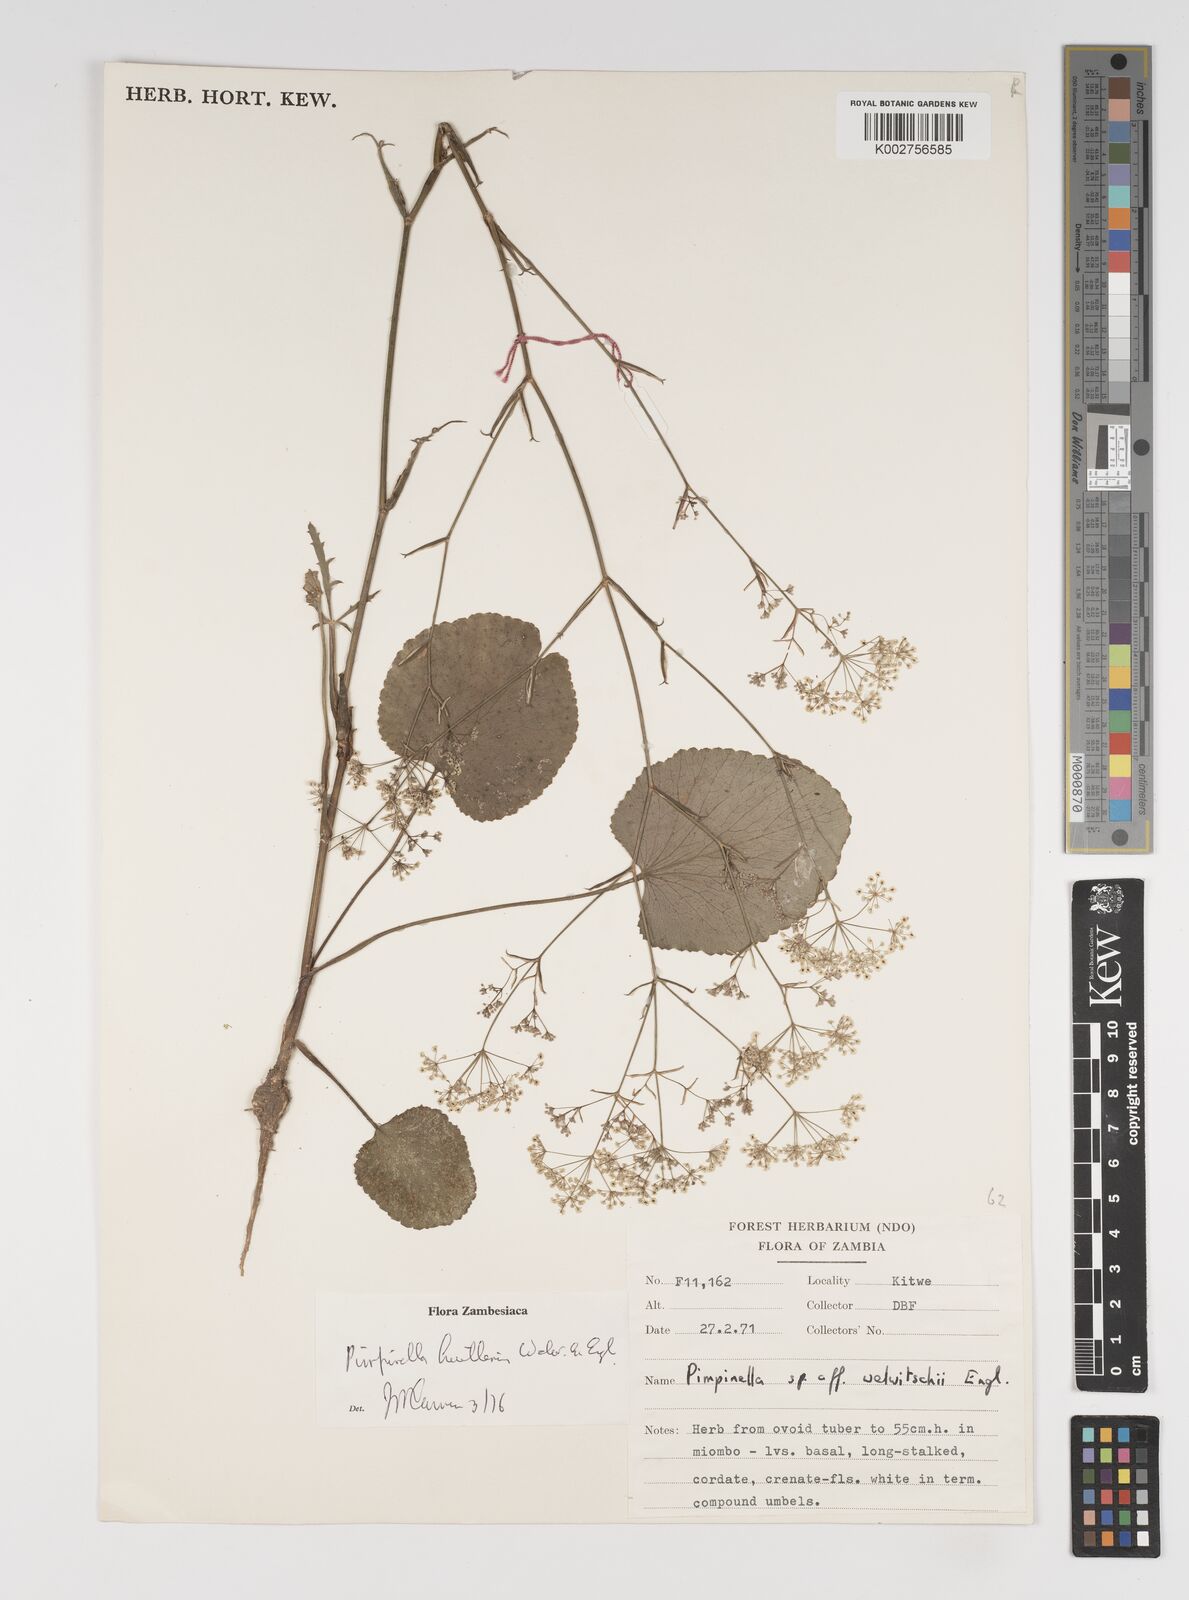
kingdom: Plantae
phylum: Tracheophyta
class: Magnoliopsida
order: Apiales
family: Apiaceae
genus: Pimpinella
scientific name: Pimpinella huillensis
